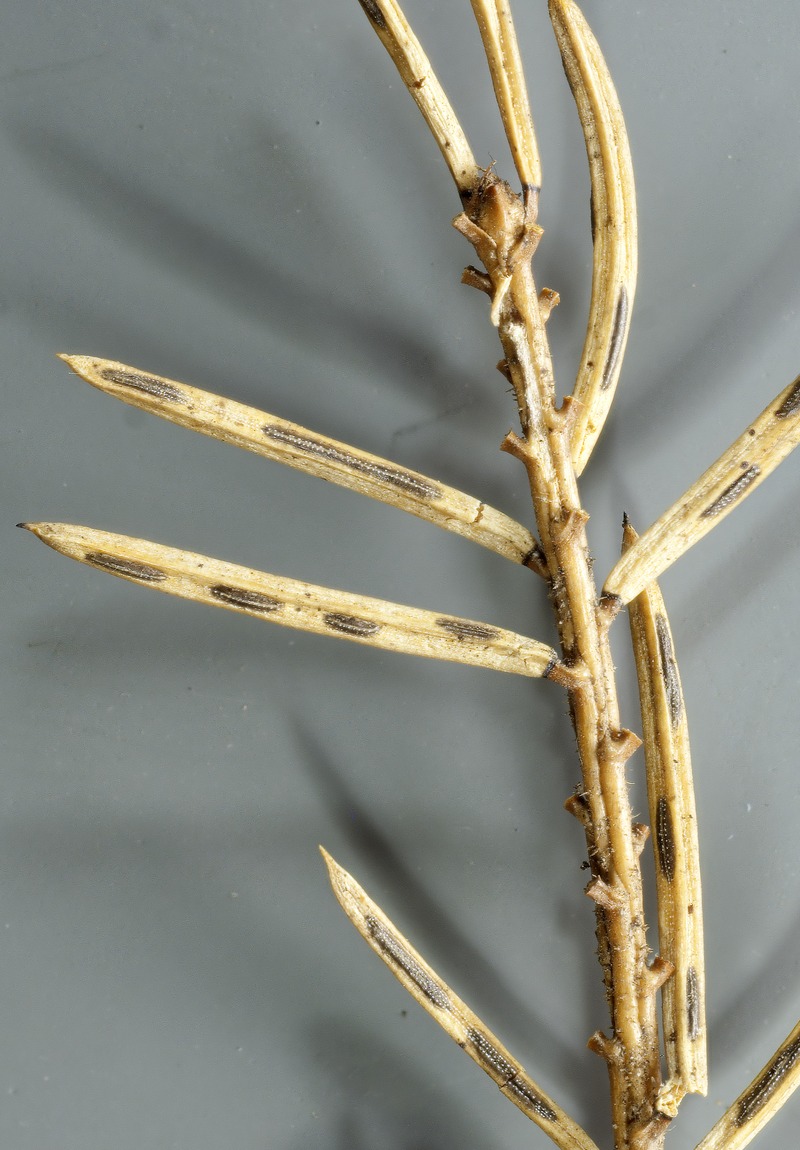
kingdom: Fungi
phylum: Ascomycota
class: Leotiomycetes
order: Rhytismatales
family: Rhytismataceae
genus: Lirula
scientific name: Lirula macrospora
